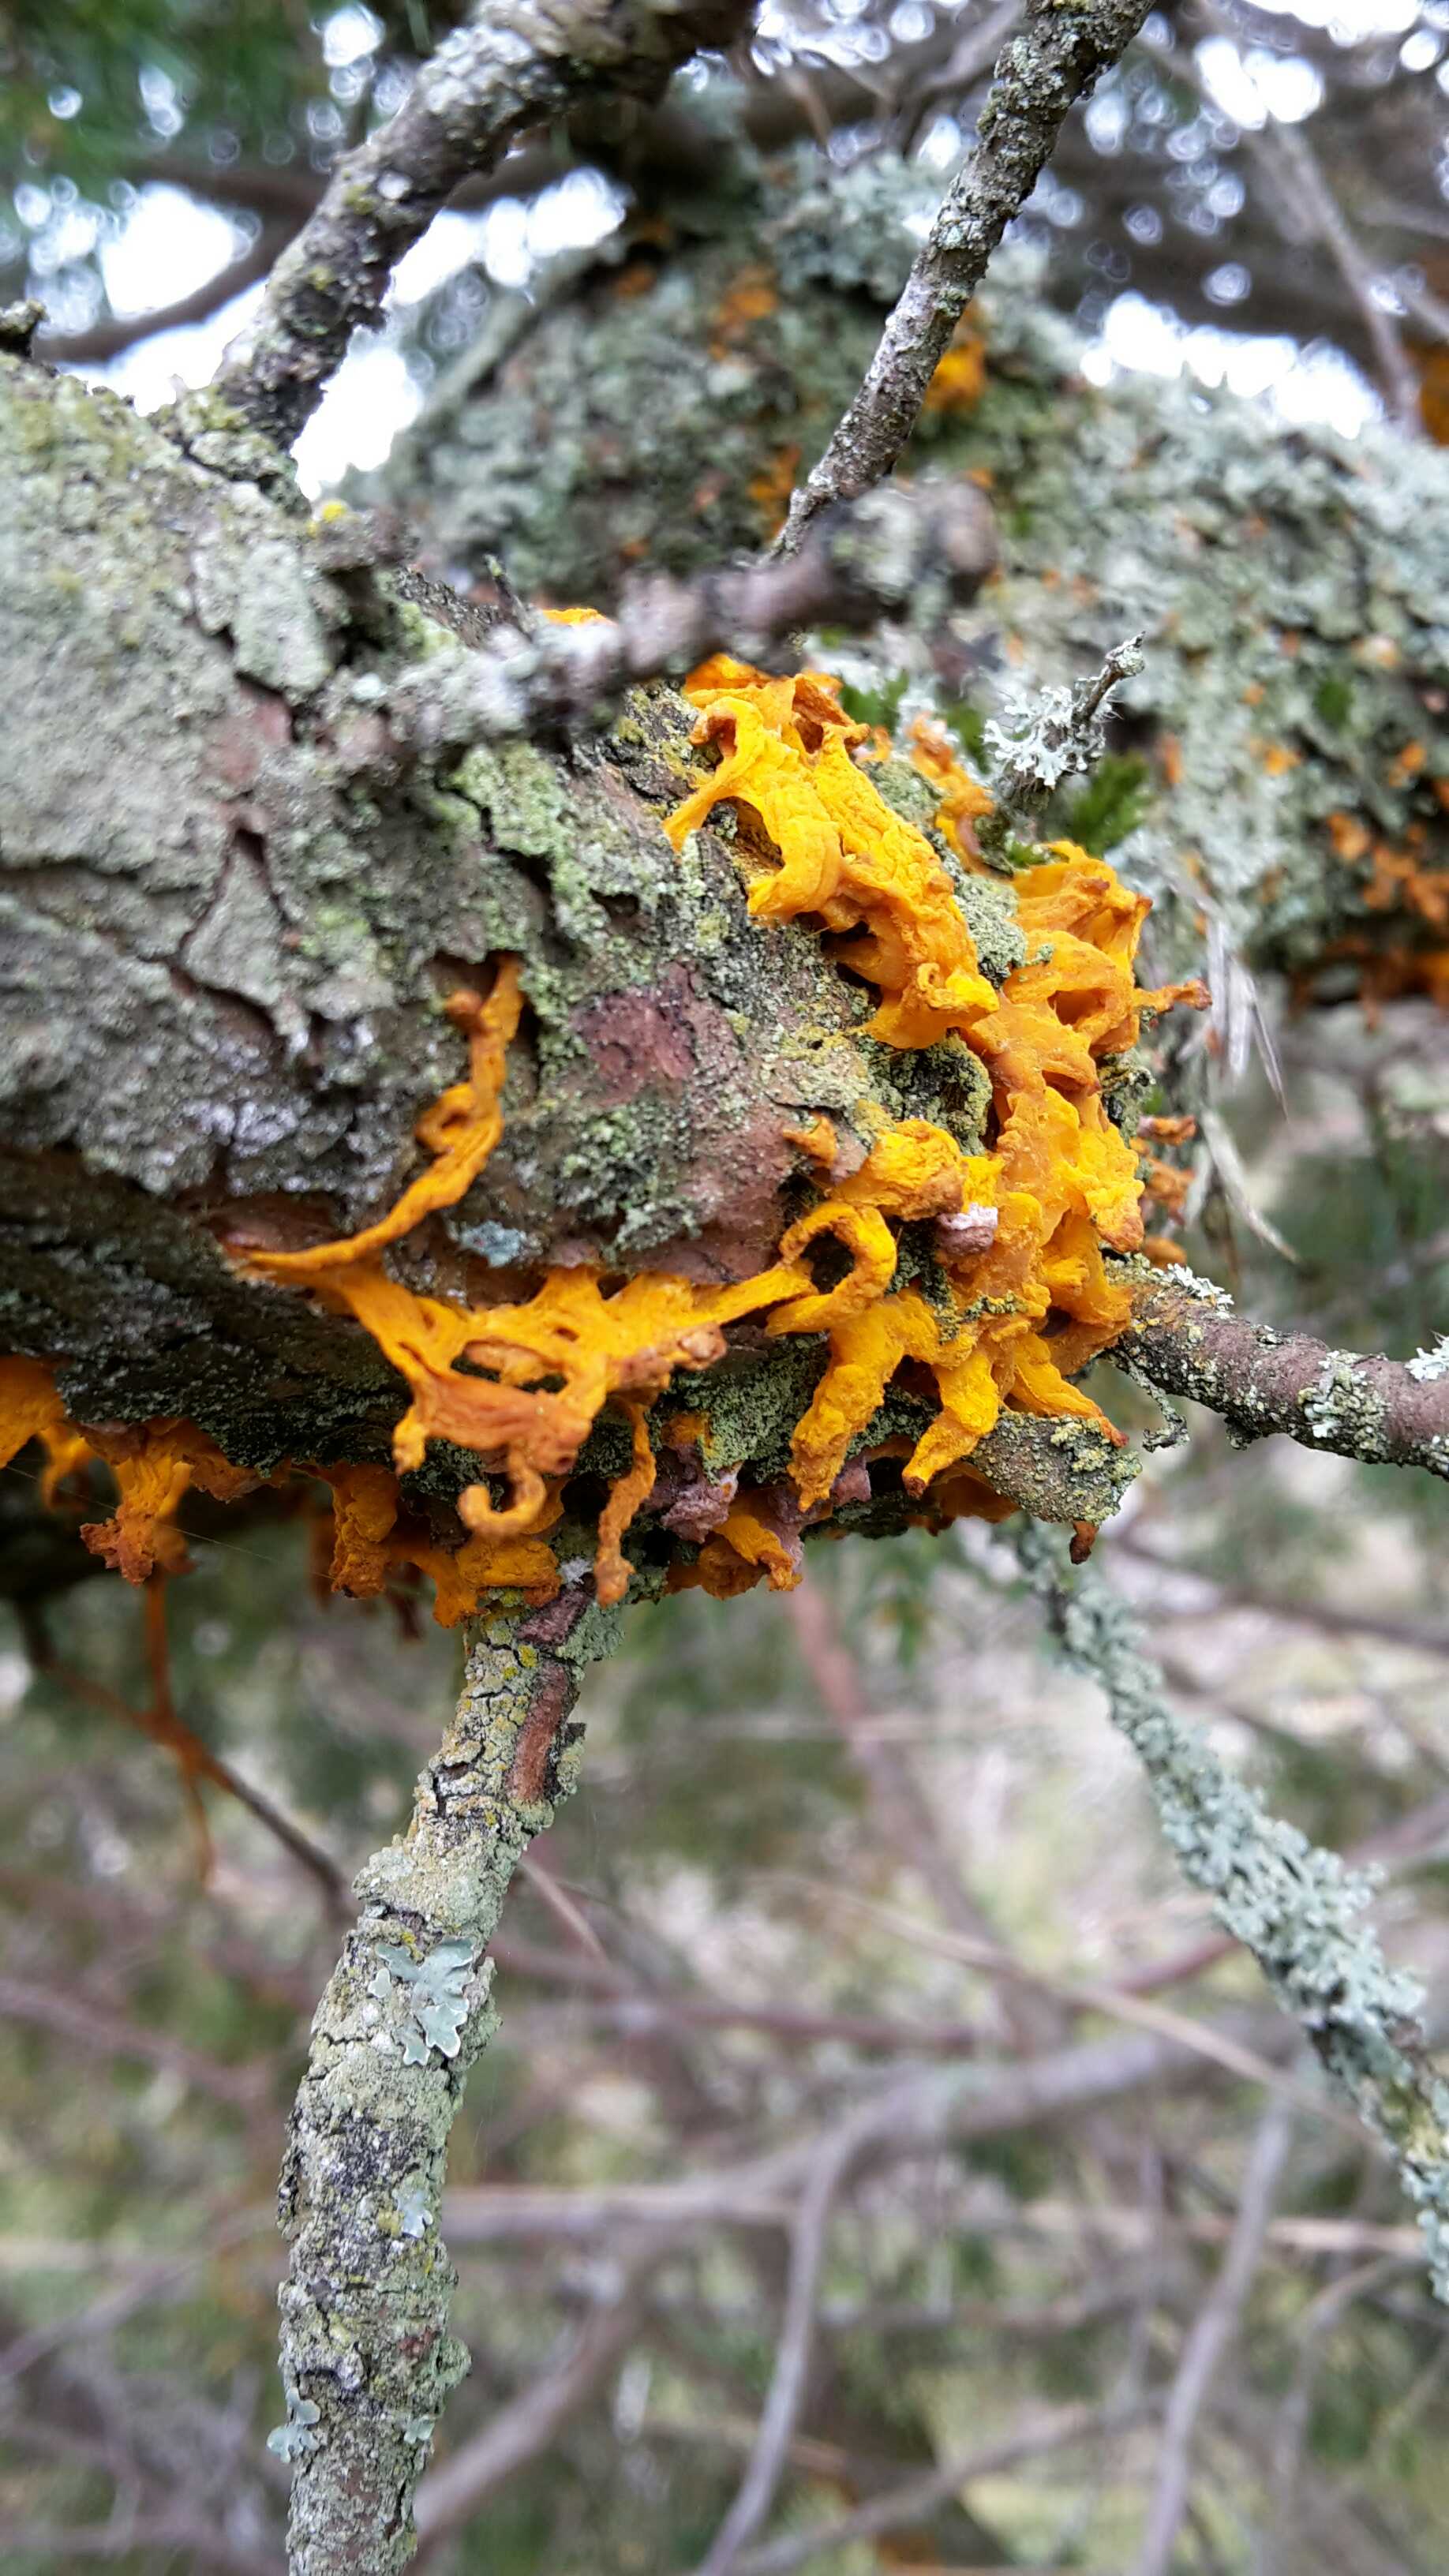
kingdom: Fungi
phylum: Basidiomycota
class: Pucciniomycetes
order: Pucciniales
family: Gymnosporangiaceae
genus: Gymnosporangium
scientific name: Gymnosporangium clavariiforme
